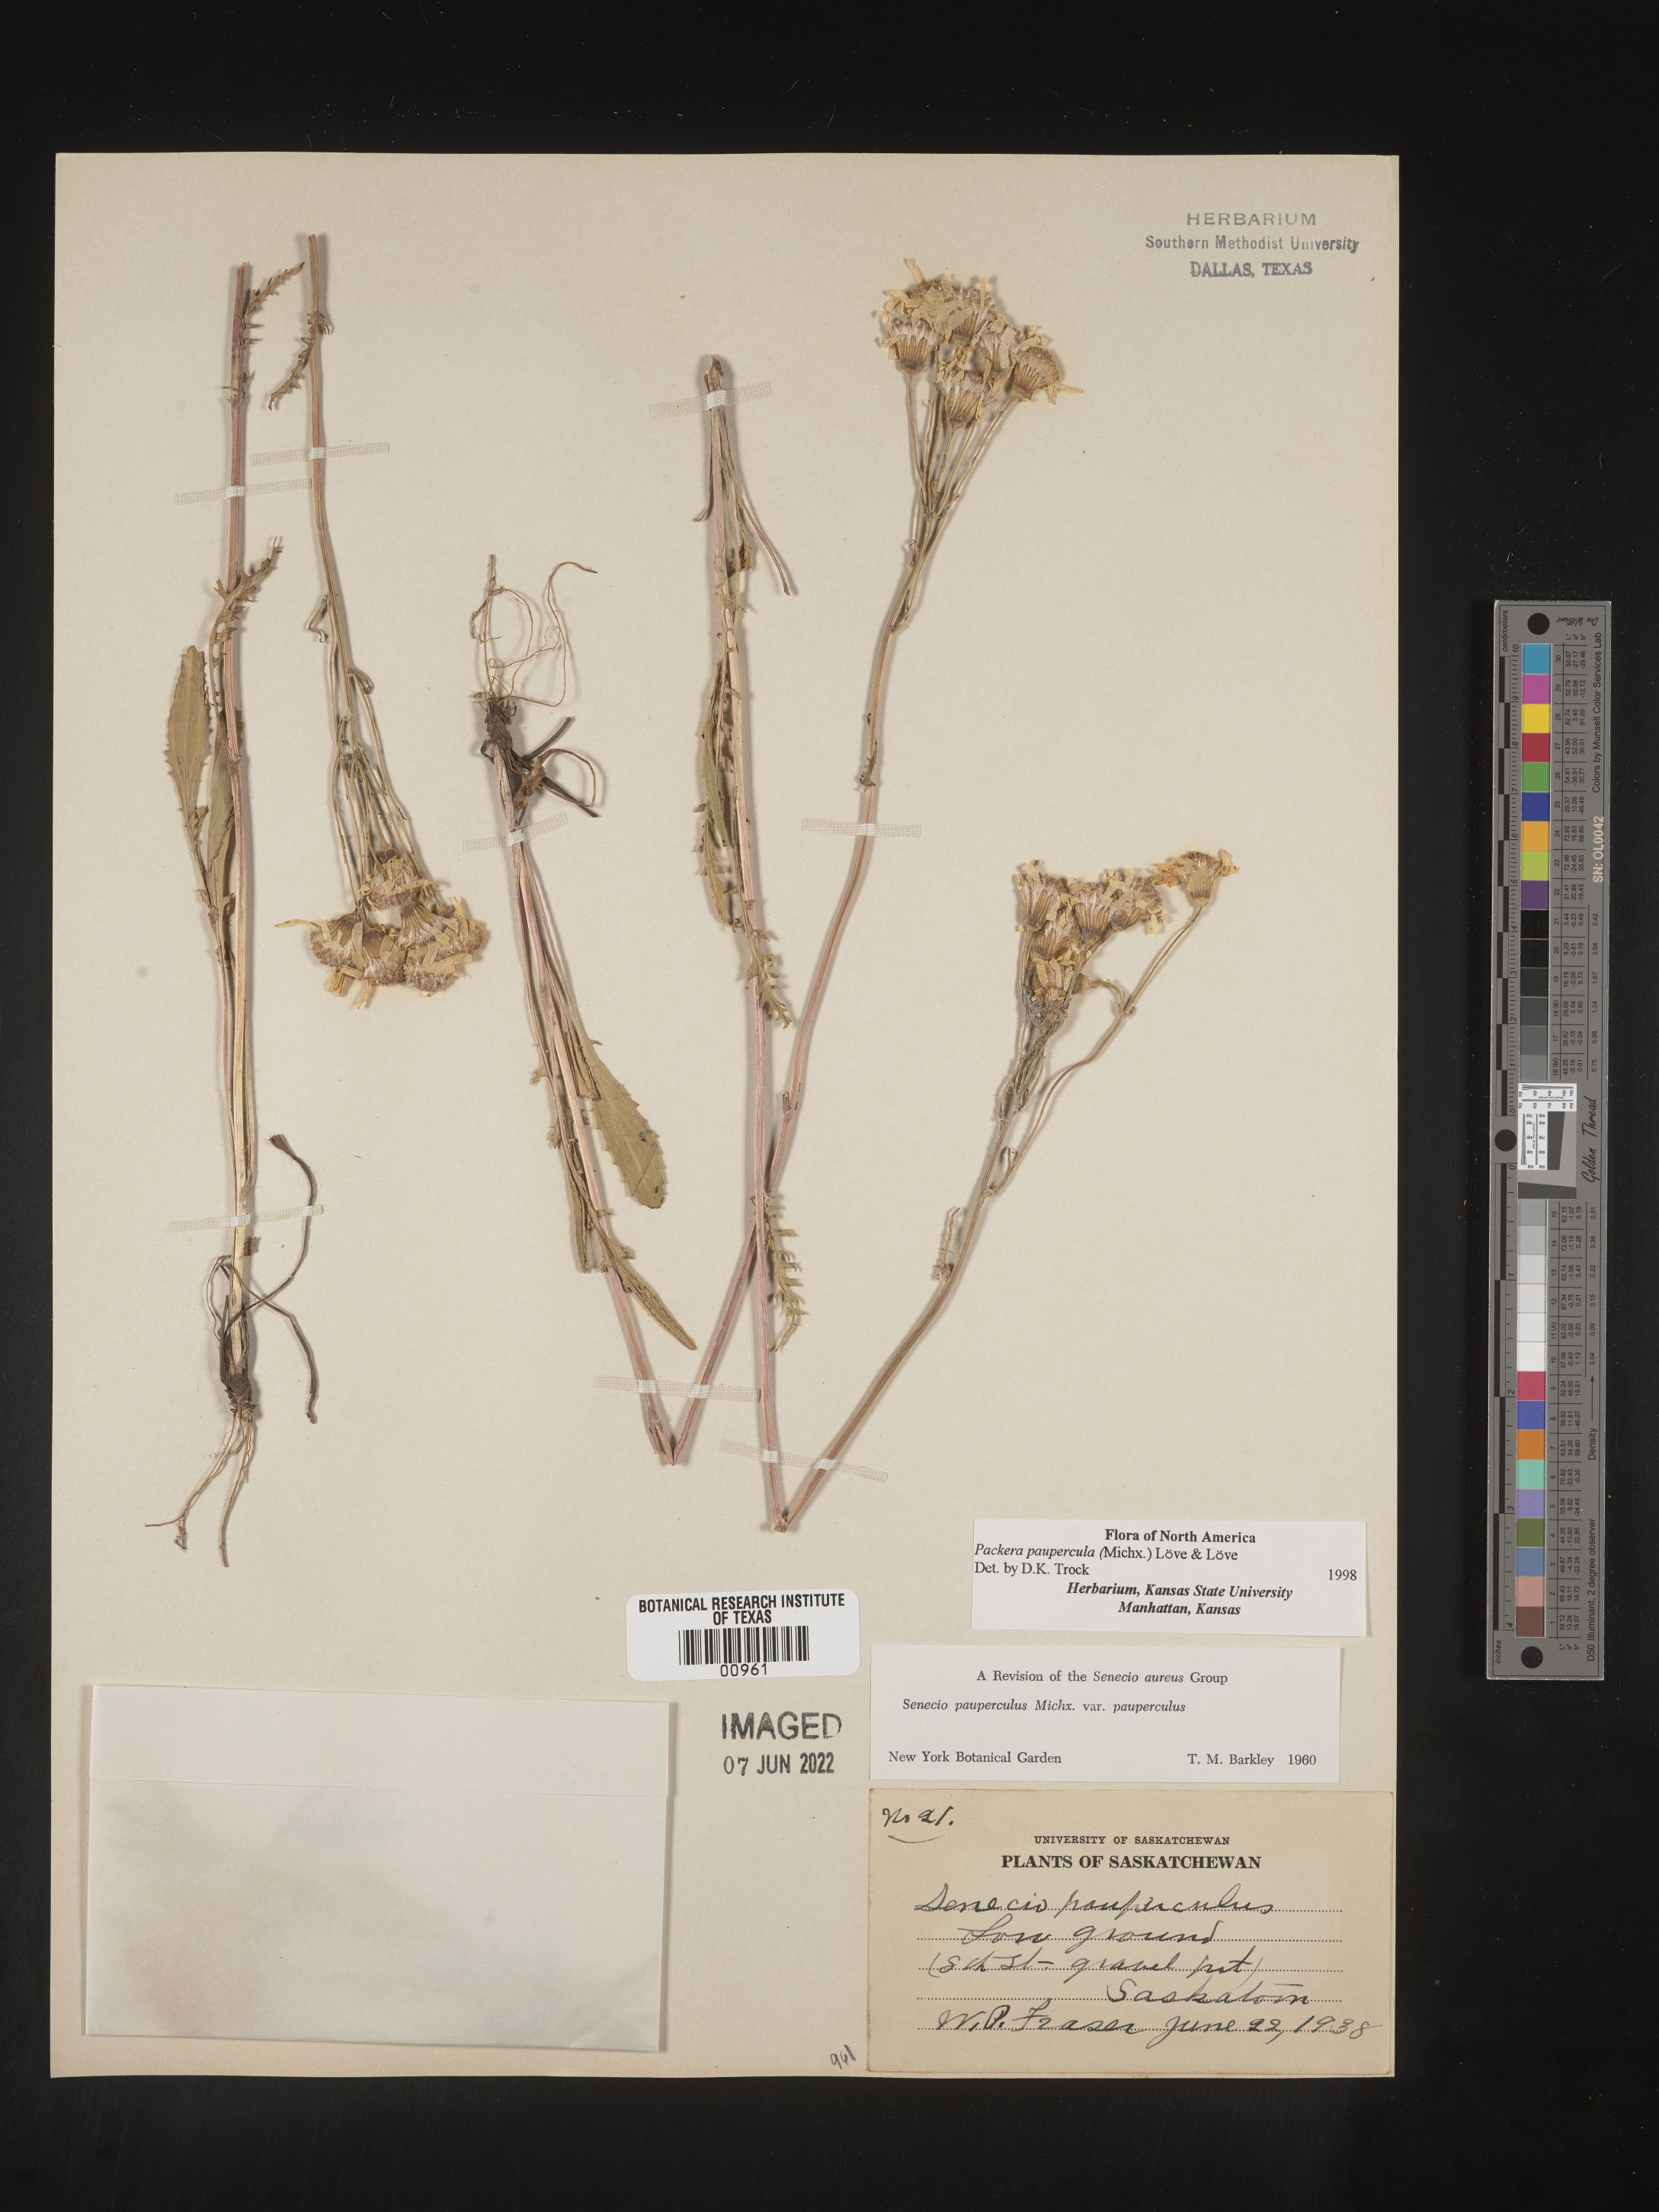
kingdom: Plantae
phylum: Tracheophyta
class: Magnoliopsida
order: Asterales
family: Asteraceae
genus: Packera
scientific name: Packera paupercula
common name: Balsam groundsel
